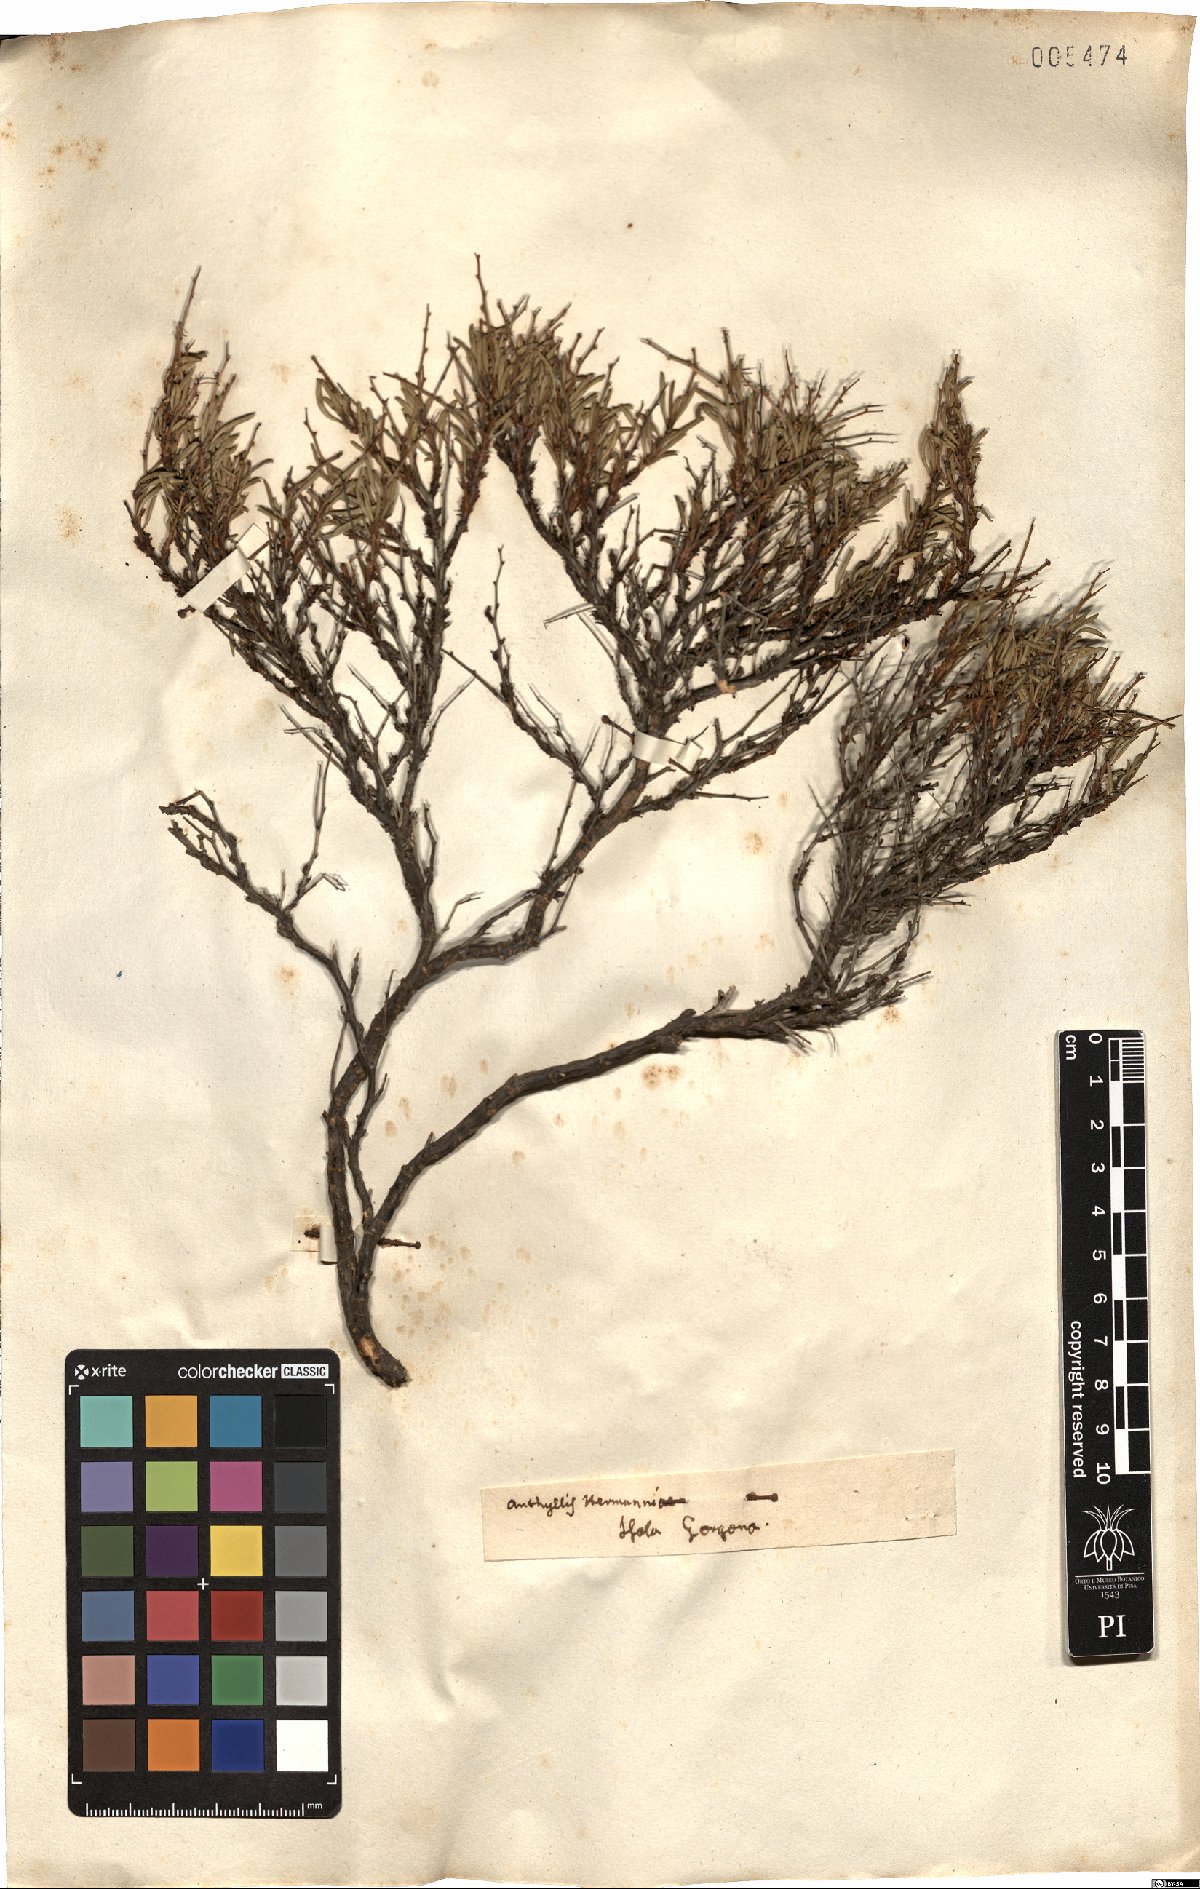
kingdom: Plantae
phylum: Tracheophyta
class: Magnoliopsida
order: Fabales
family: Fabaceae
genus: Anthyllis
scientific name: Anthyllis hermanniae
